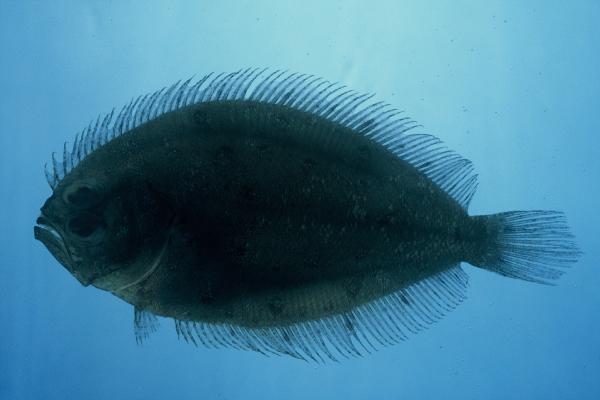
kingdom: Animalia
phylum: Chordata
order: Pleuronectiformes
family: Paralichthyidae
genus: Pseudorhombus
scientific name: Pseudorhombus elevatus
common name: Deep flounder
